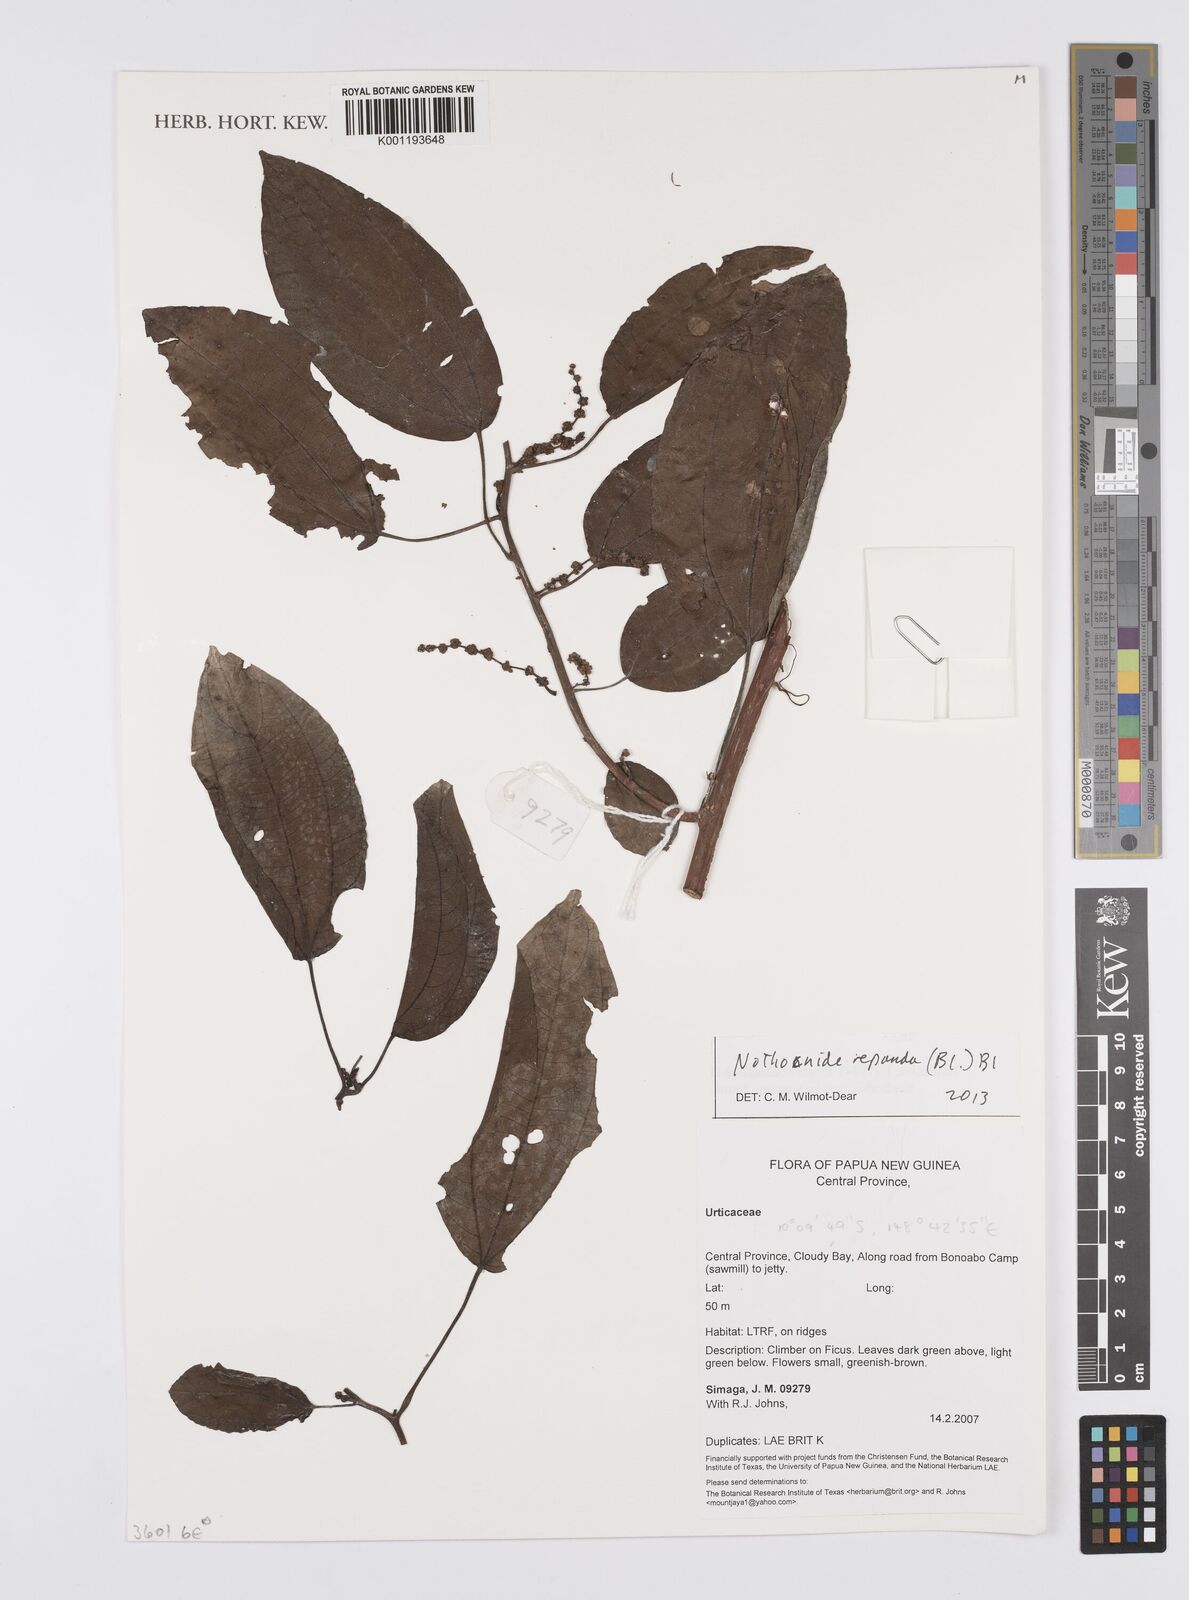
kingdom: Plantae
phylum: Tracheophyta
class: Magnoliopsida
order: Rosales
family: Urticaceae
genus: Nothocnide
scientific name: Nothocnide repanda
